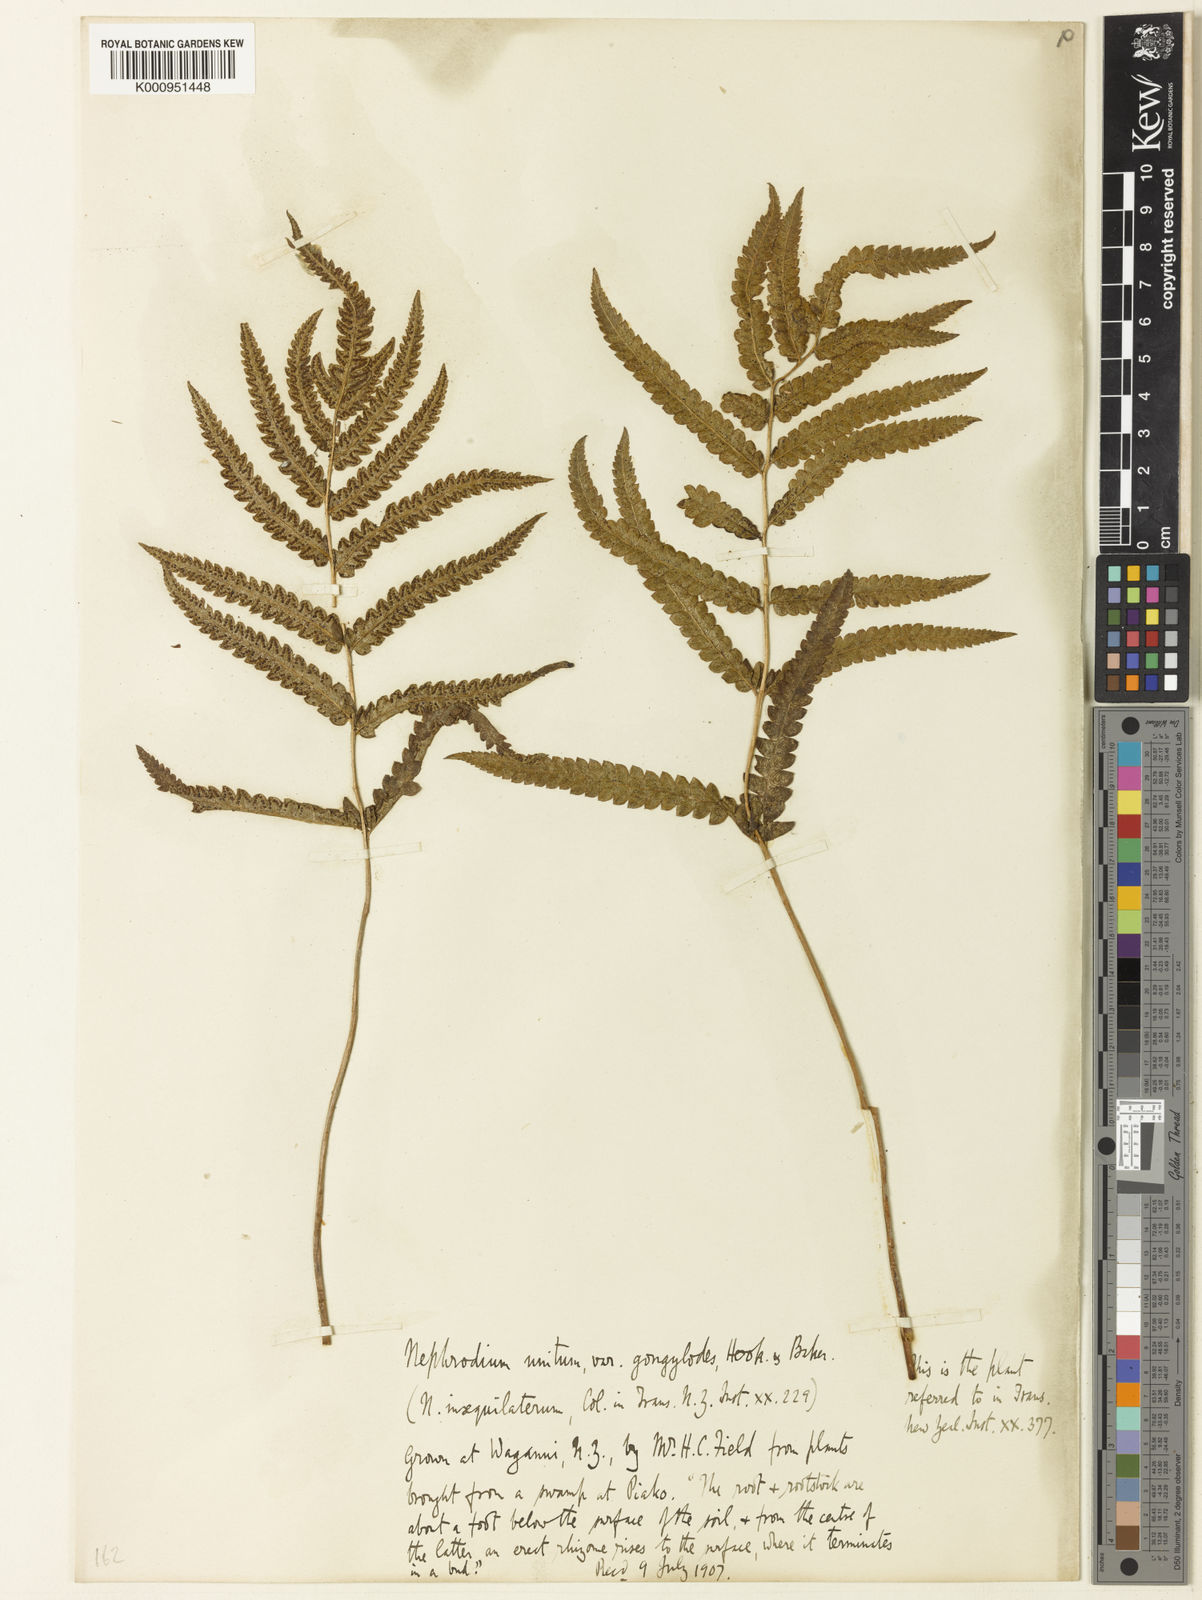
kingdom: Plantae
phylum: Tracheophyta
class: Polypodiopsida
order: Polypodiales
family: Thelypteridaceae
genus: Cyclosorus
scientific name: Cyclosorus interruptus
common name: Neke fern
